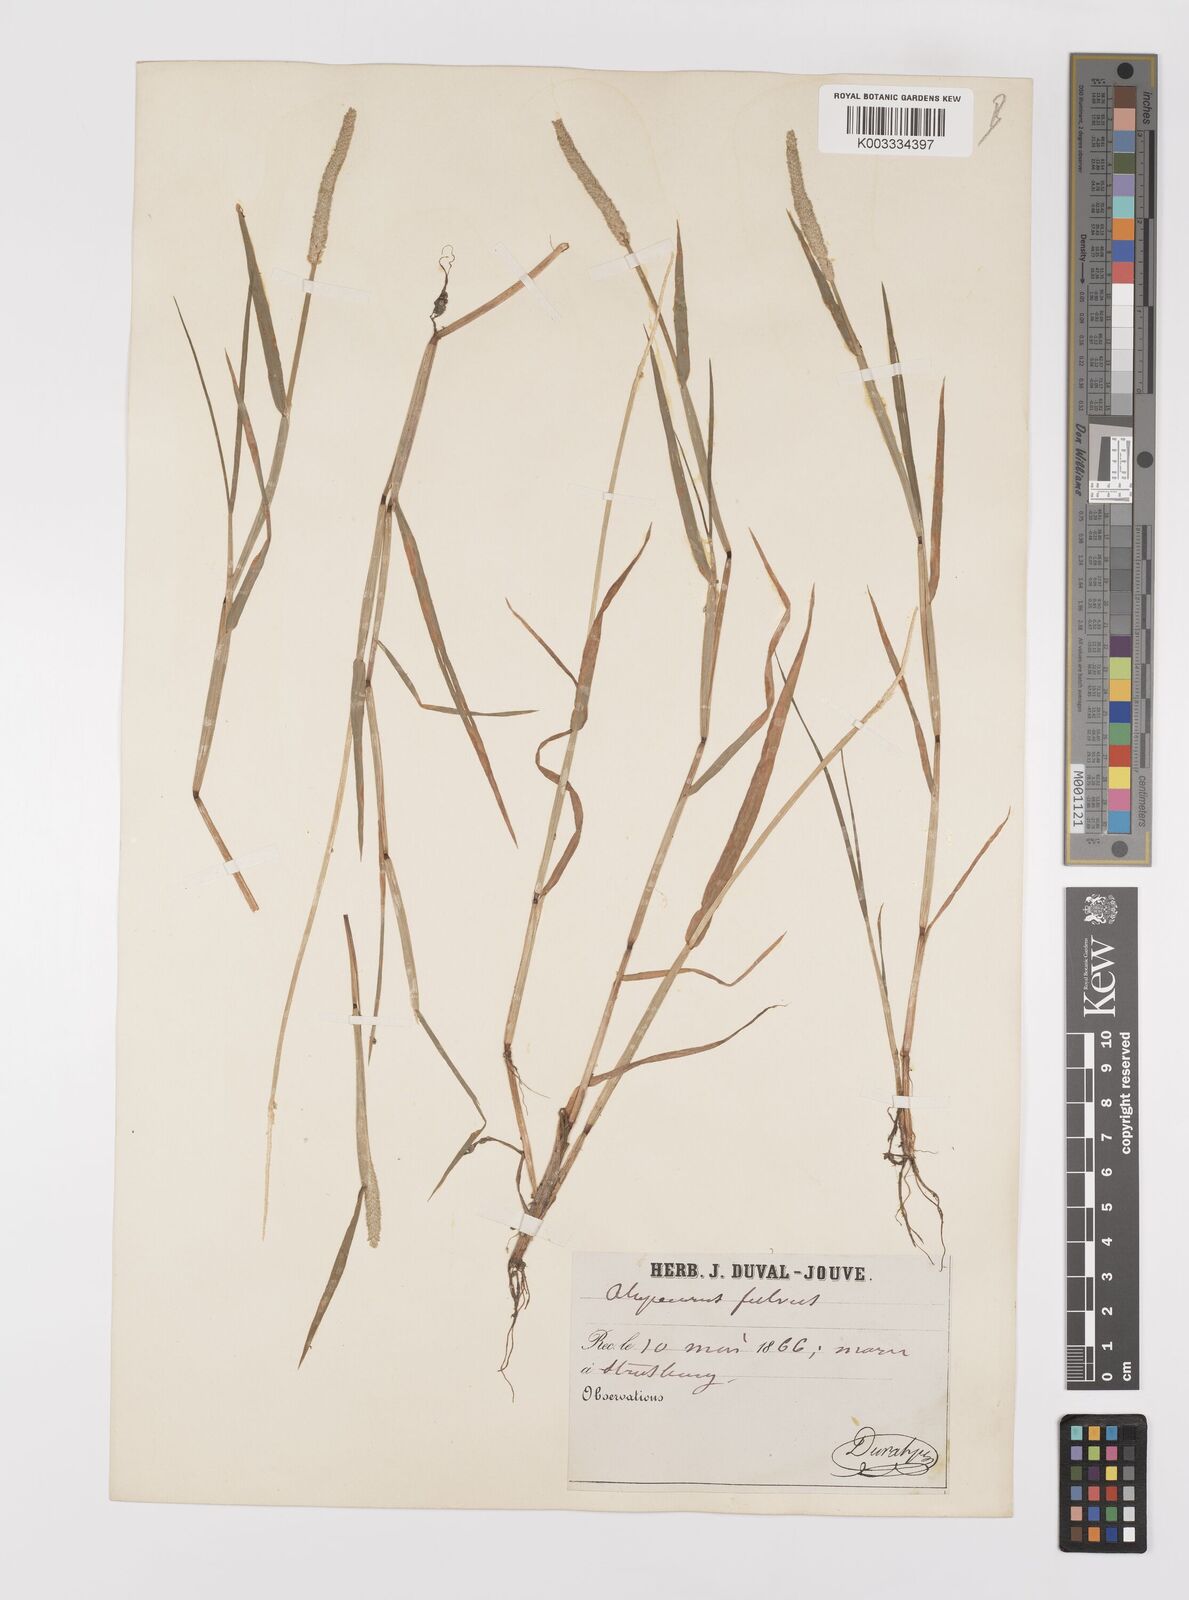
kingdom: Plantae
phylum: Tracheophyta
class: Liliopsida
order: Poales
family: Poaceae
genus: Alopecurus
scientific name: Alopecurus aequalis
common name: Orange foxtail
